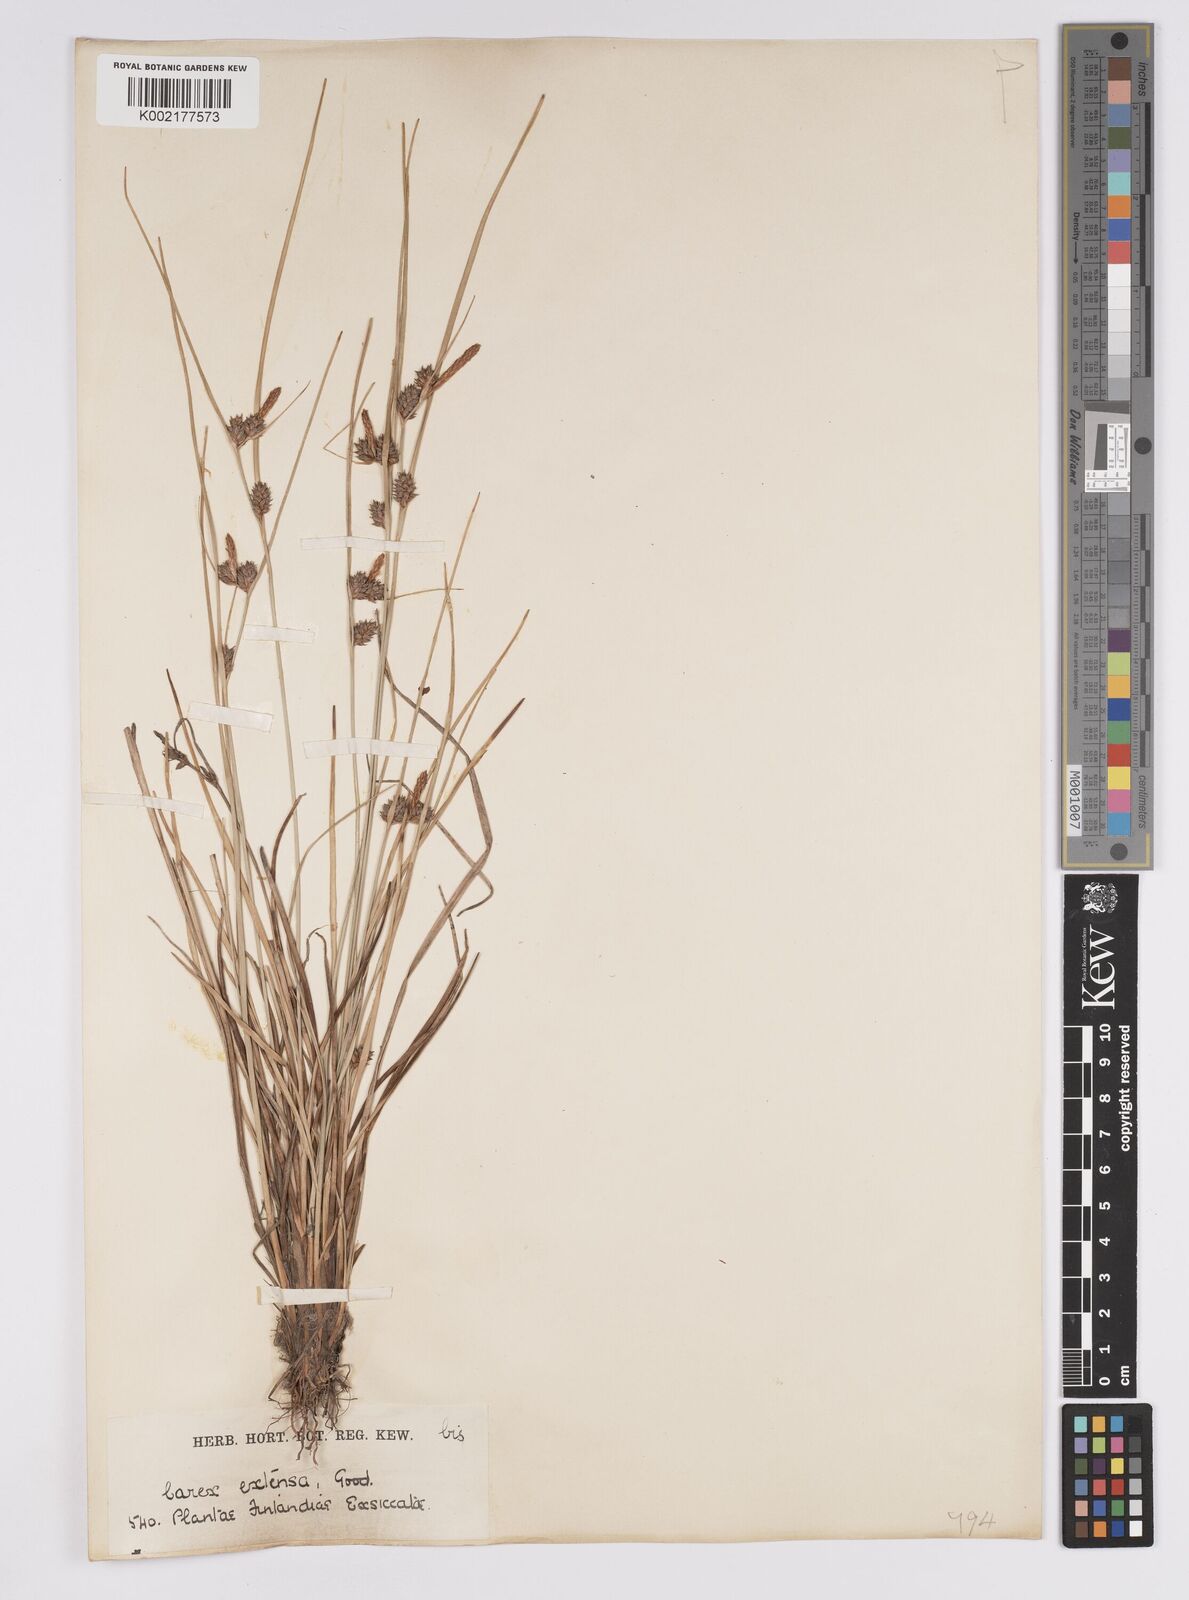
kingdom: Plantae
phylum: Tracheophyta
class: Liliopsida
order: Poales
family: Cyperaceae
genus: Carex
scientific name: Carex extensa
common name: Long-bracted sedge
